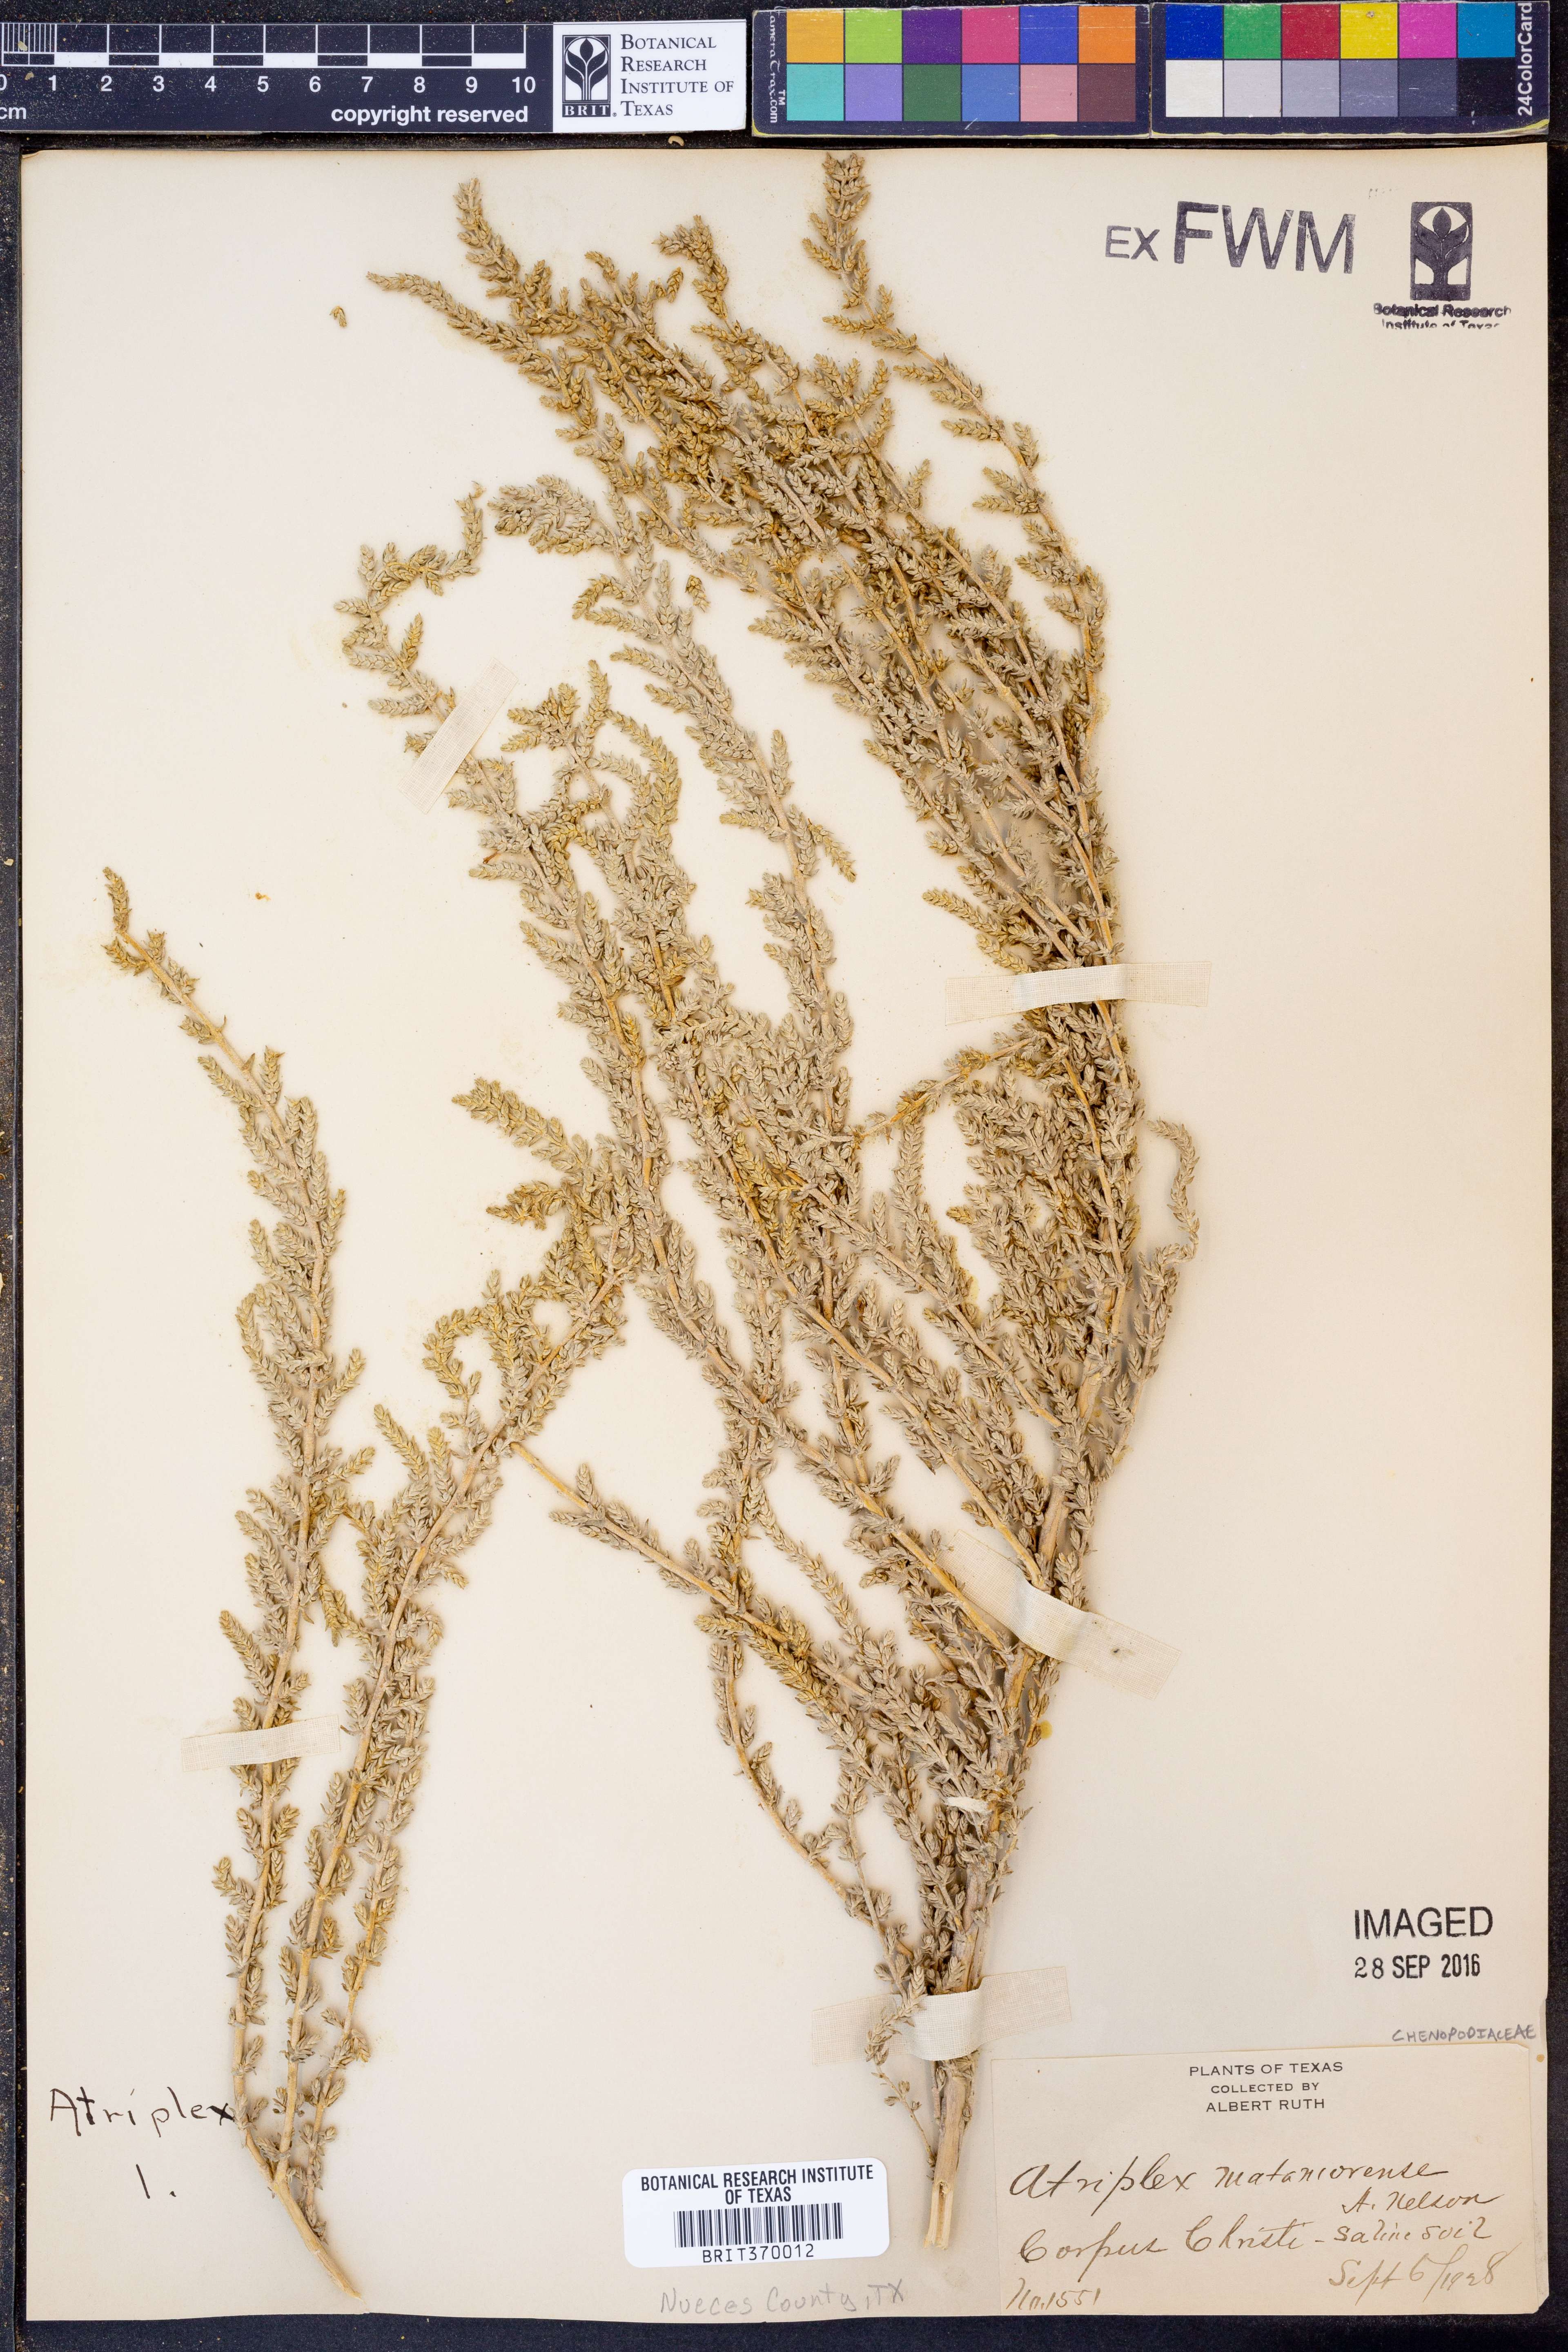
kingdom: Plantae
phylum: Tracheophyta
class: Magnoliopsida
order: Caryophyllales
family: Amaranthaceae
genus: Atriplex
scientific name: Atriplex matamorensis
